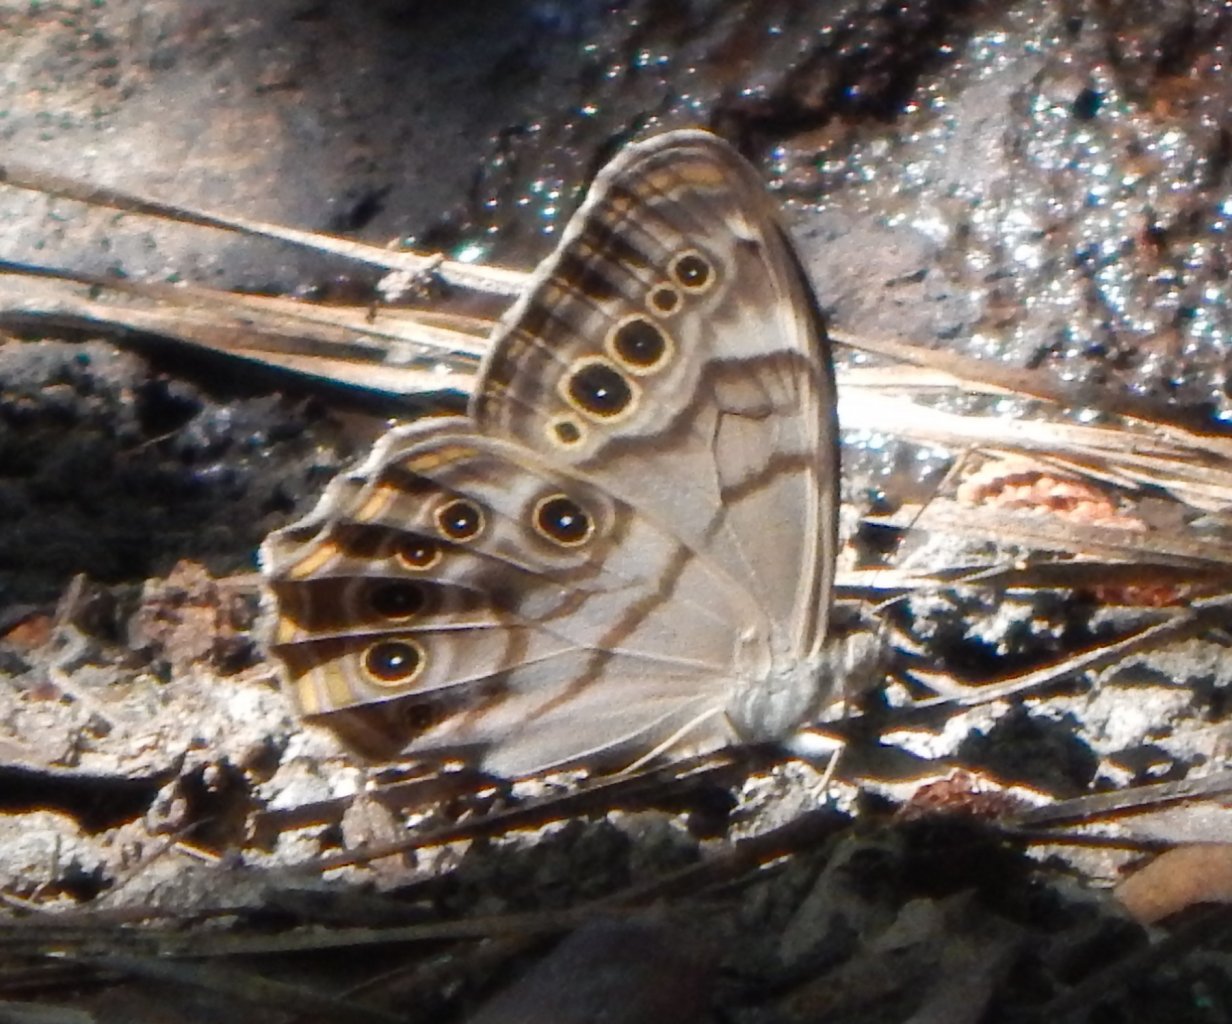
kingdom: Animalia
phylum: Arthropoda
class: Insecta
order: Lepidoptera
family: Nymphalidae
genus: Lethe
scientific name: Lethe anthedon
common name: Northern Pearly-Eye
